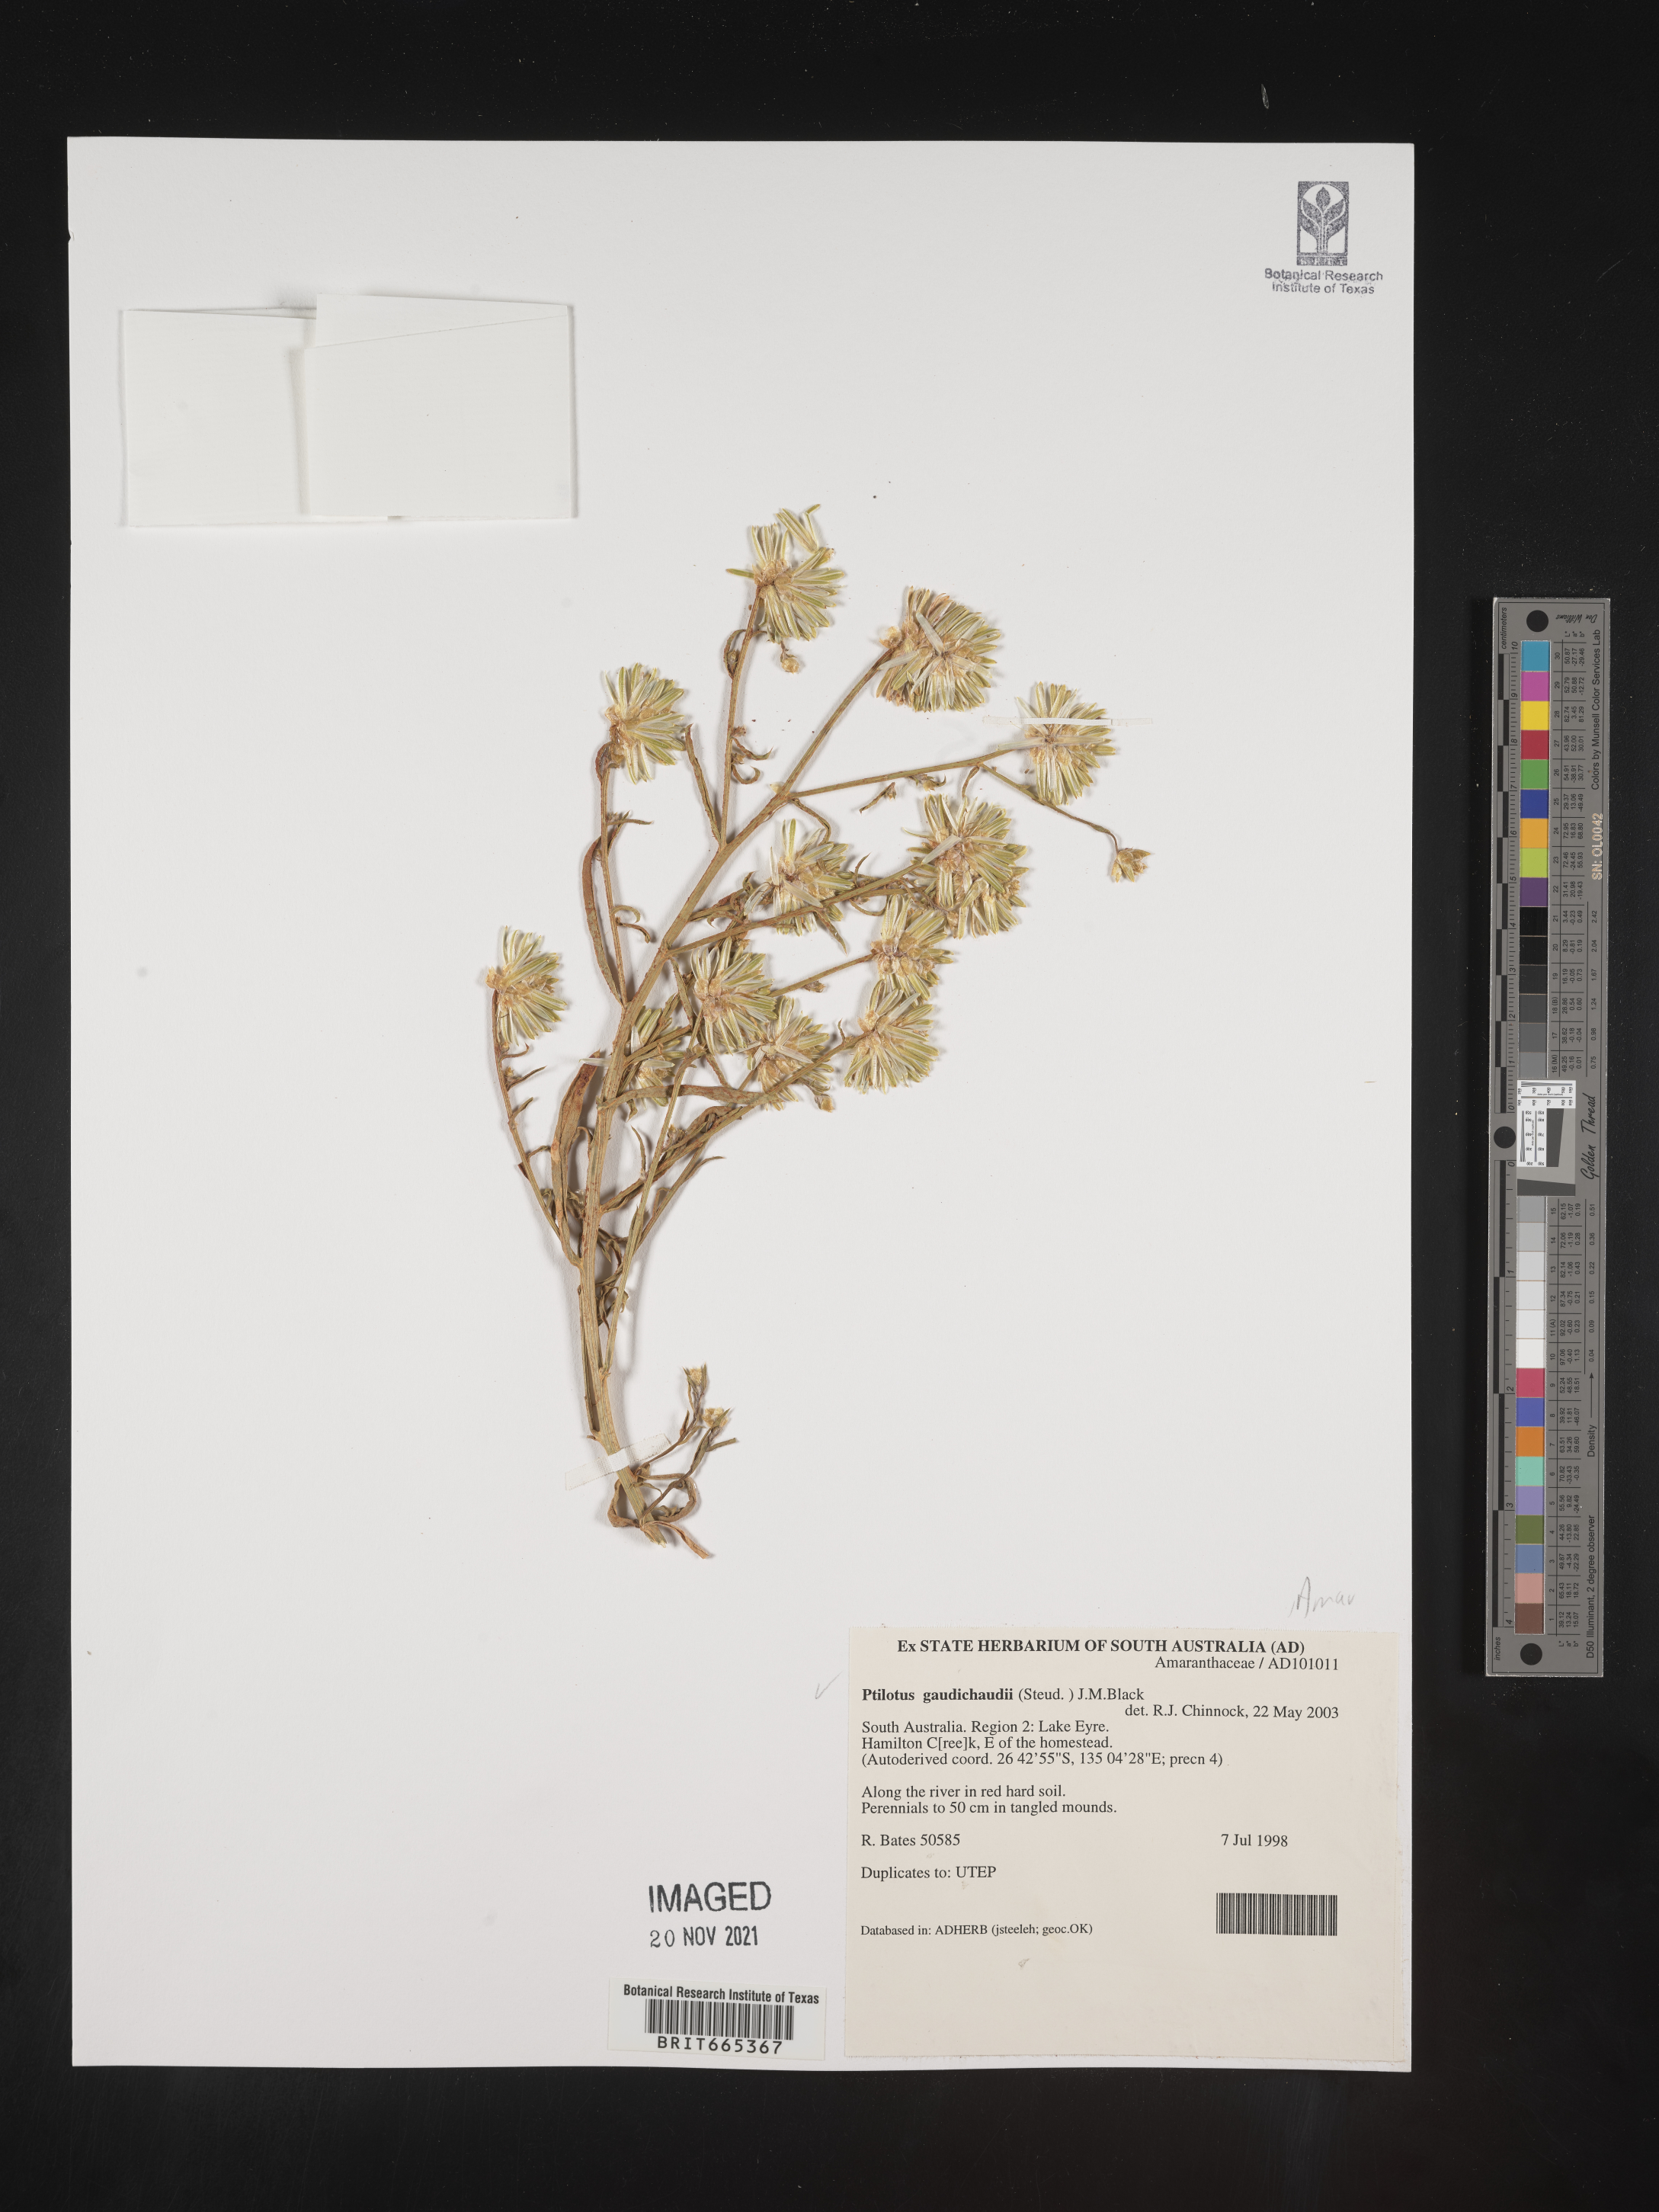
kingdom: Plantae
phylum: Tracheophyta
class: Magnoliopsida
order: Caryophyllales
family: Amaranthaceae
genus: Ptilotus
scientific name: Ptilotus
